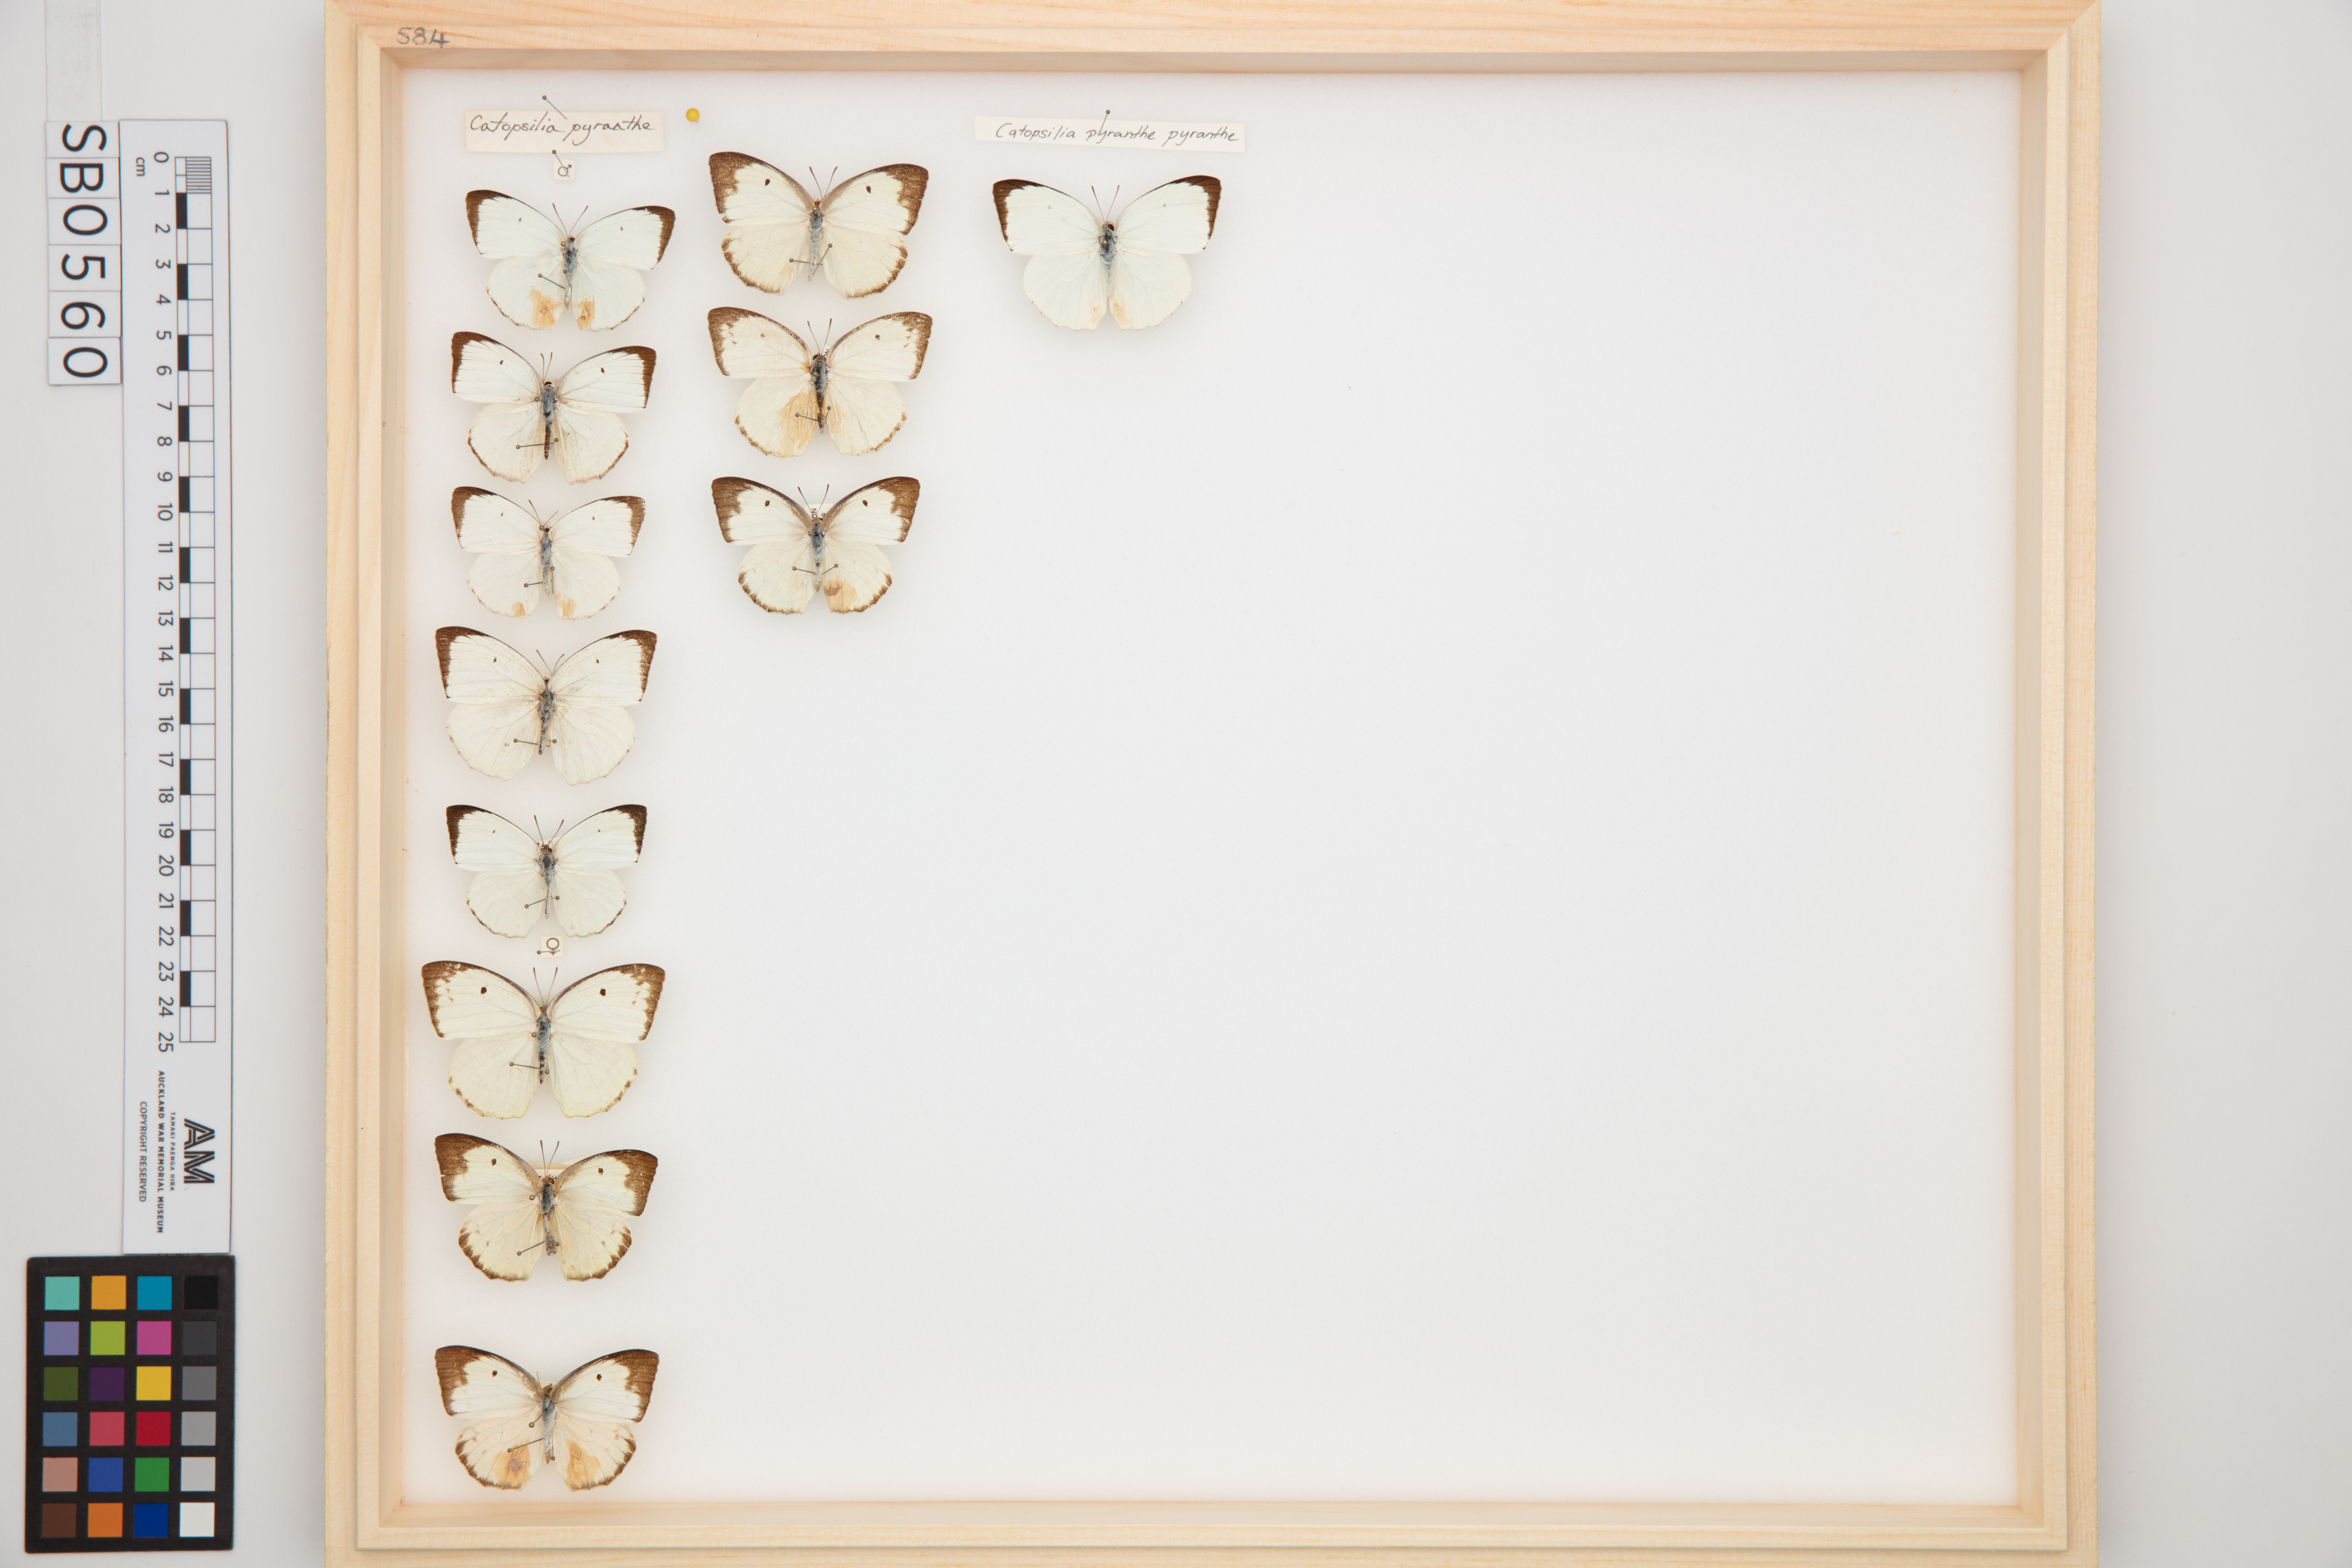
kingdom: Animalia
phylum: Arthropoda
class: Insecta
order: Lepidoptera
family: Pieridae
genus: Catopsilia
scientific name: Catopsilia pyranthe
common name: Mottled emigrant
